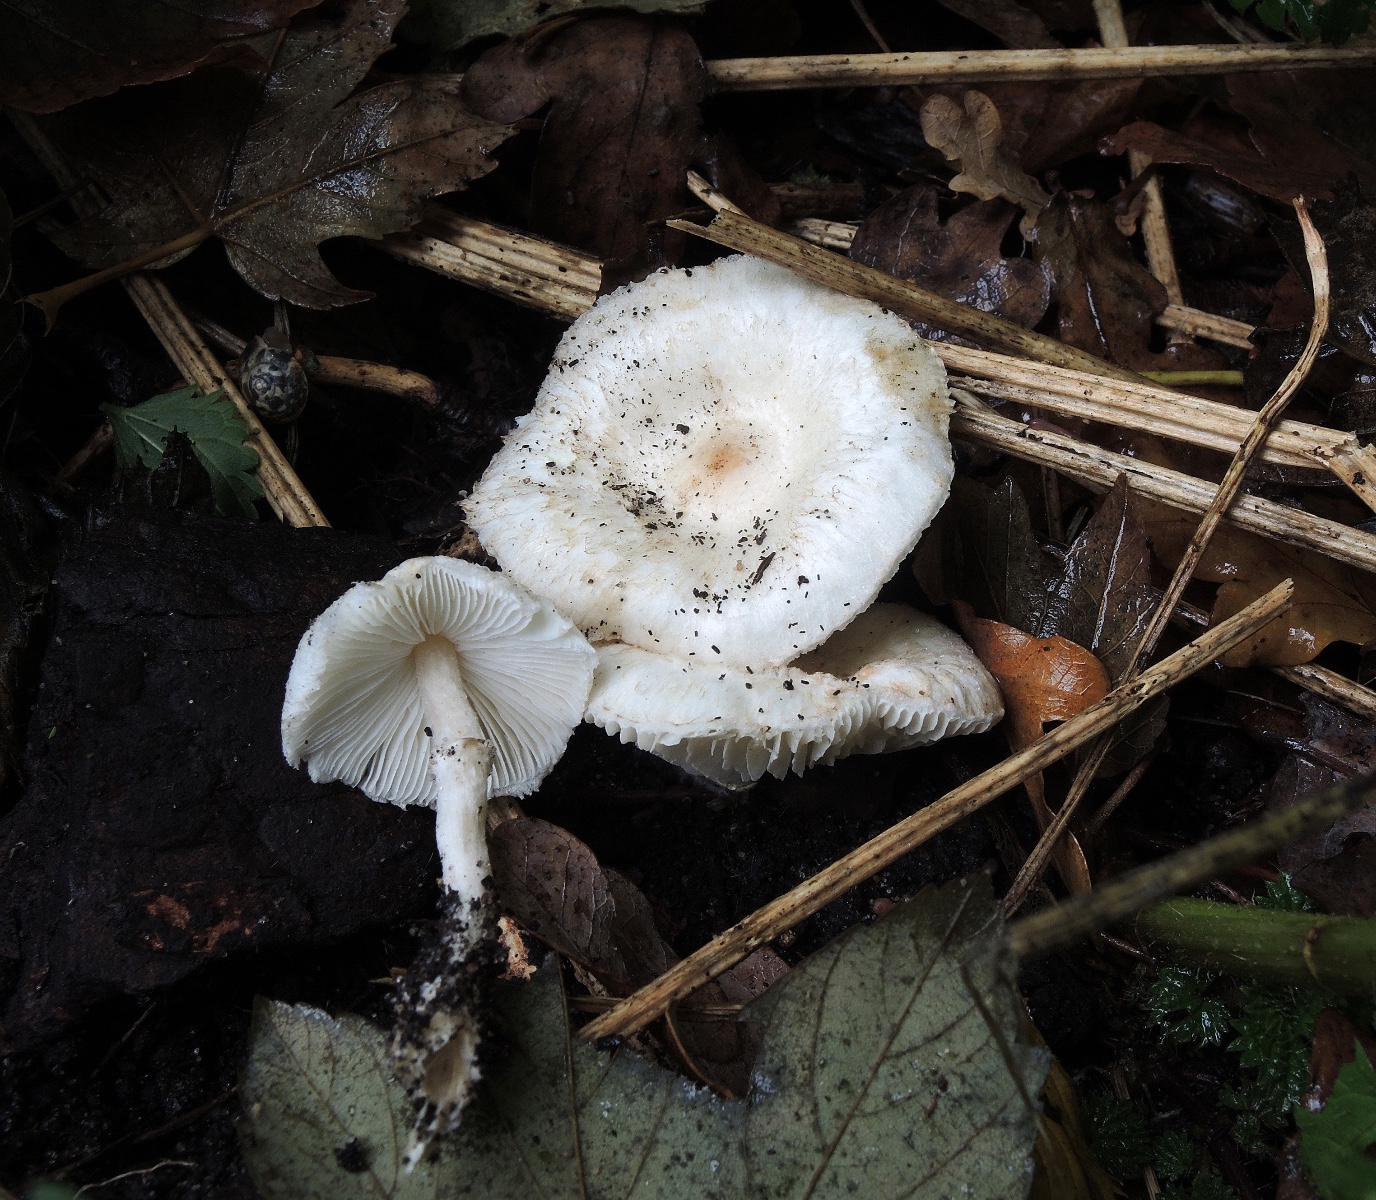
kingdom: Fungi
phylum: Basidiomycota
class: Agaricomycetes
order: Agaricales
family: Agaricaceae
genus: Leucoagaricus
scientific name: Leucoagaricus sericifer
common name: hvid silkehat
